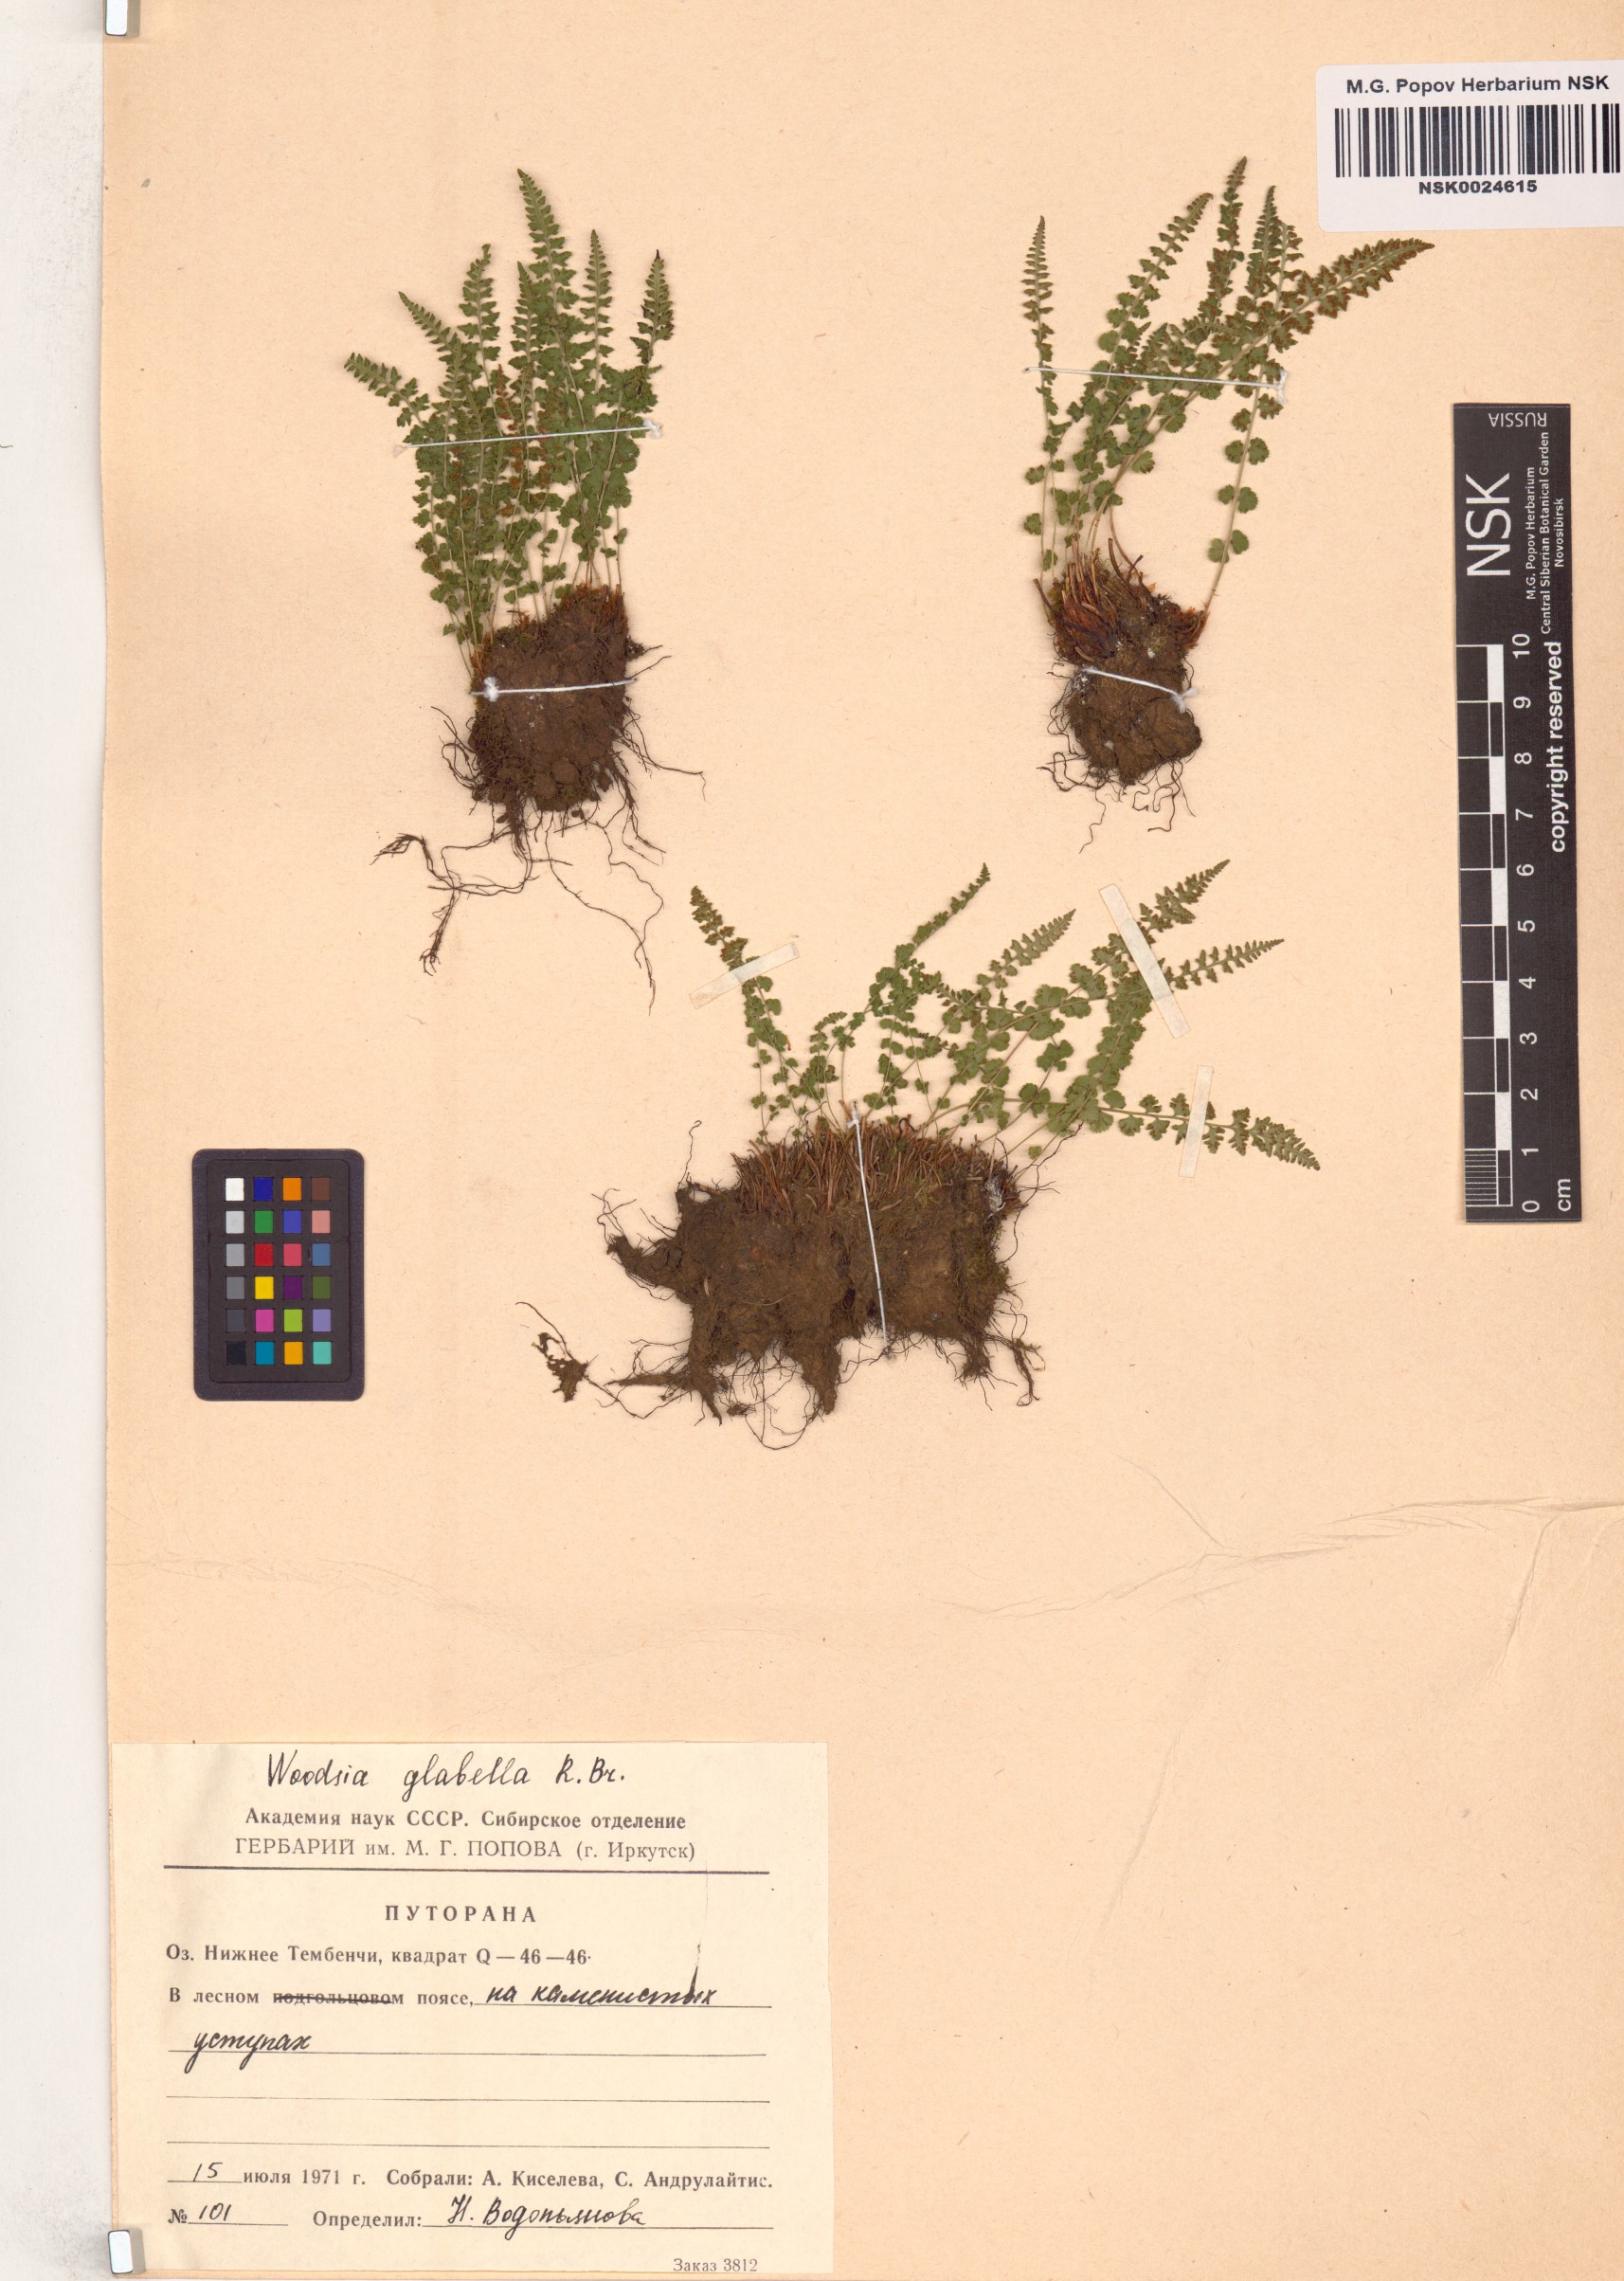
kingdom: Plantae
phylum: Tracheophyta
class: Polypodiopsida
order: Polypodiales
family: Woodsiaceae
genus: Woodsia
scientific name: Woodsia glabella
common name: Smooth woodsia
